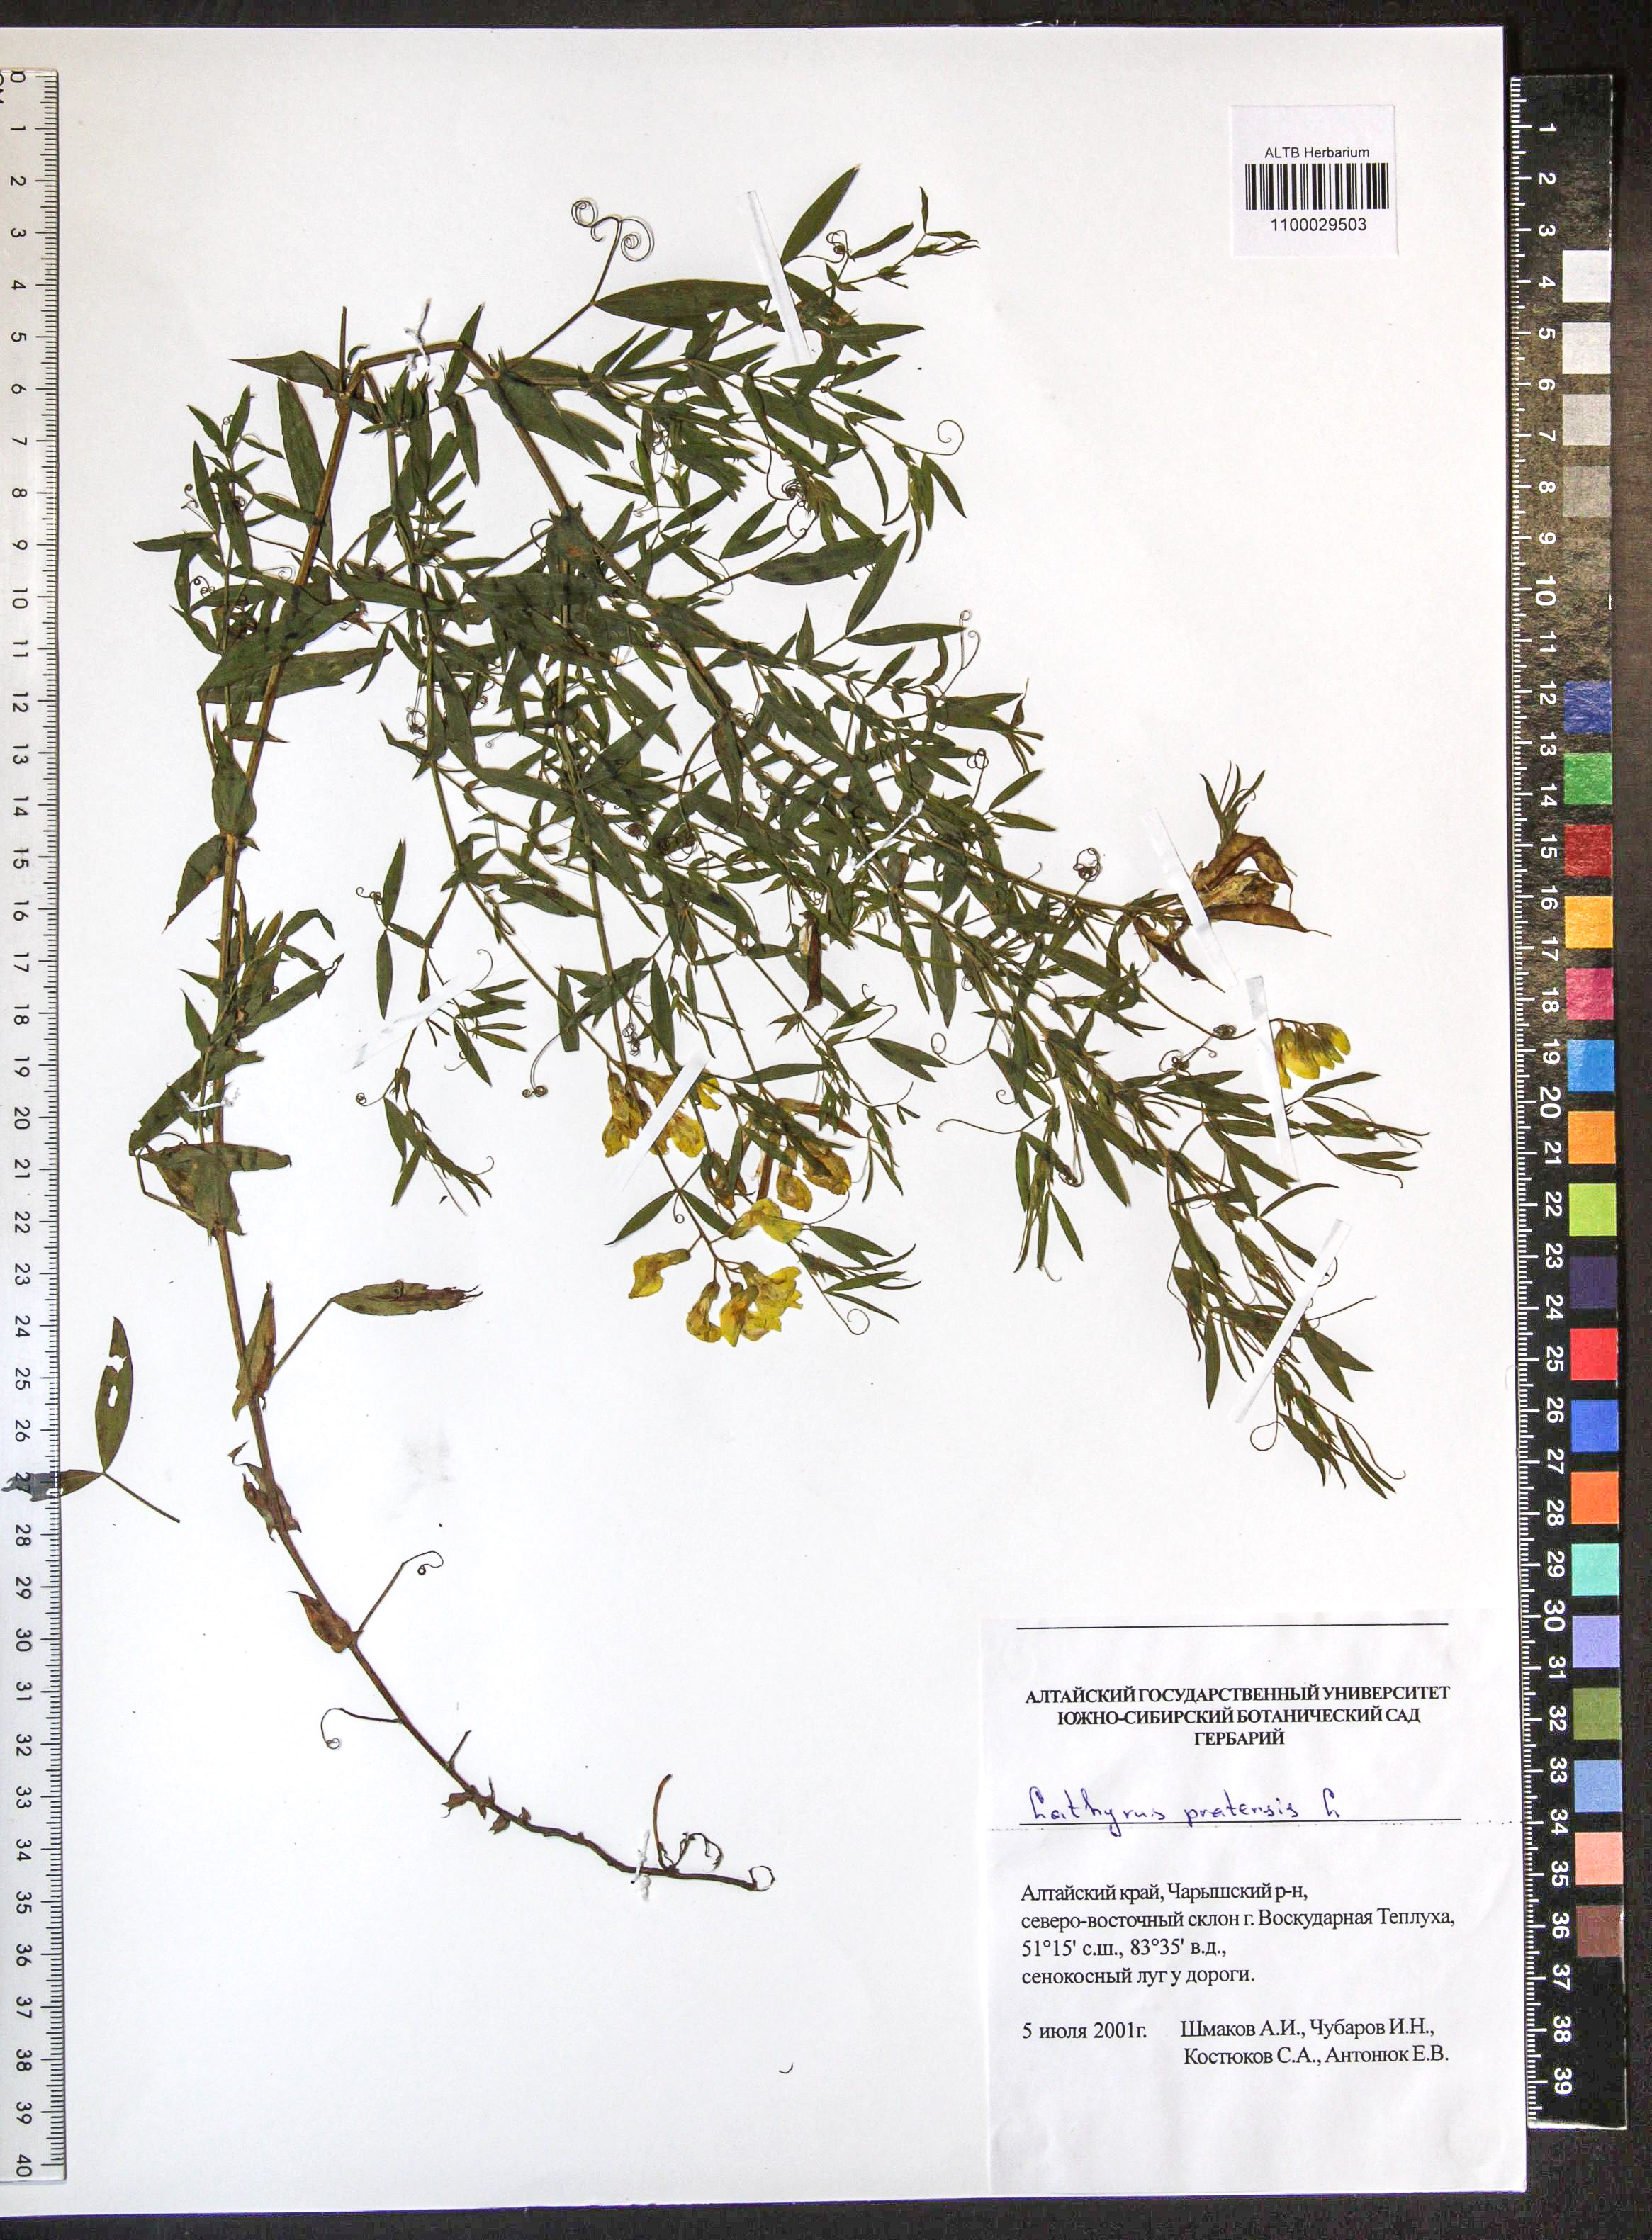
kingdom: Plantae
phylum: Tracheophyta
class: Magnoliopsida
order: Fabales
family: Fabaceae
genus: Lathyrus
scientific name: Lathyrus pratensis
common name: Meadow vetchling
